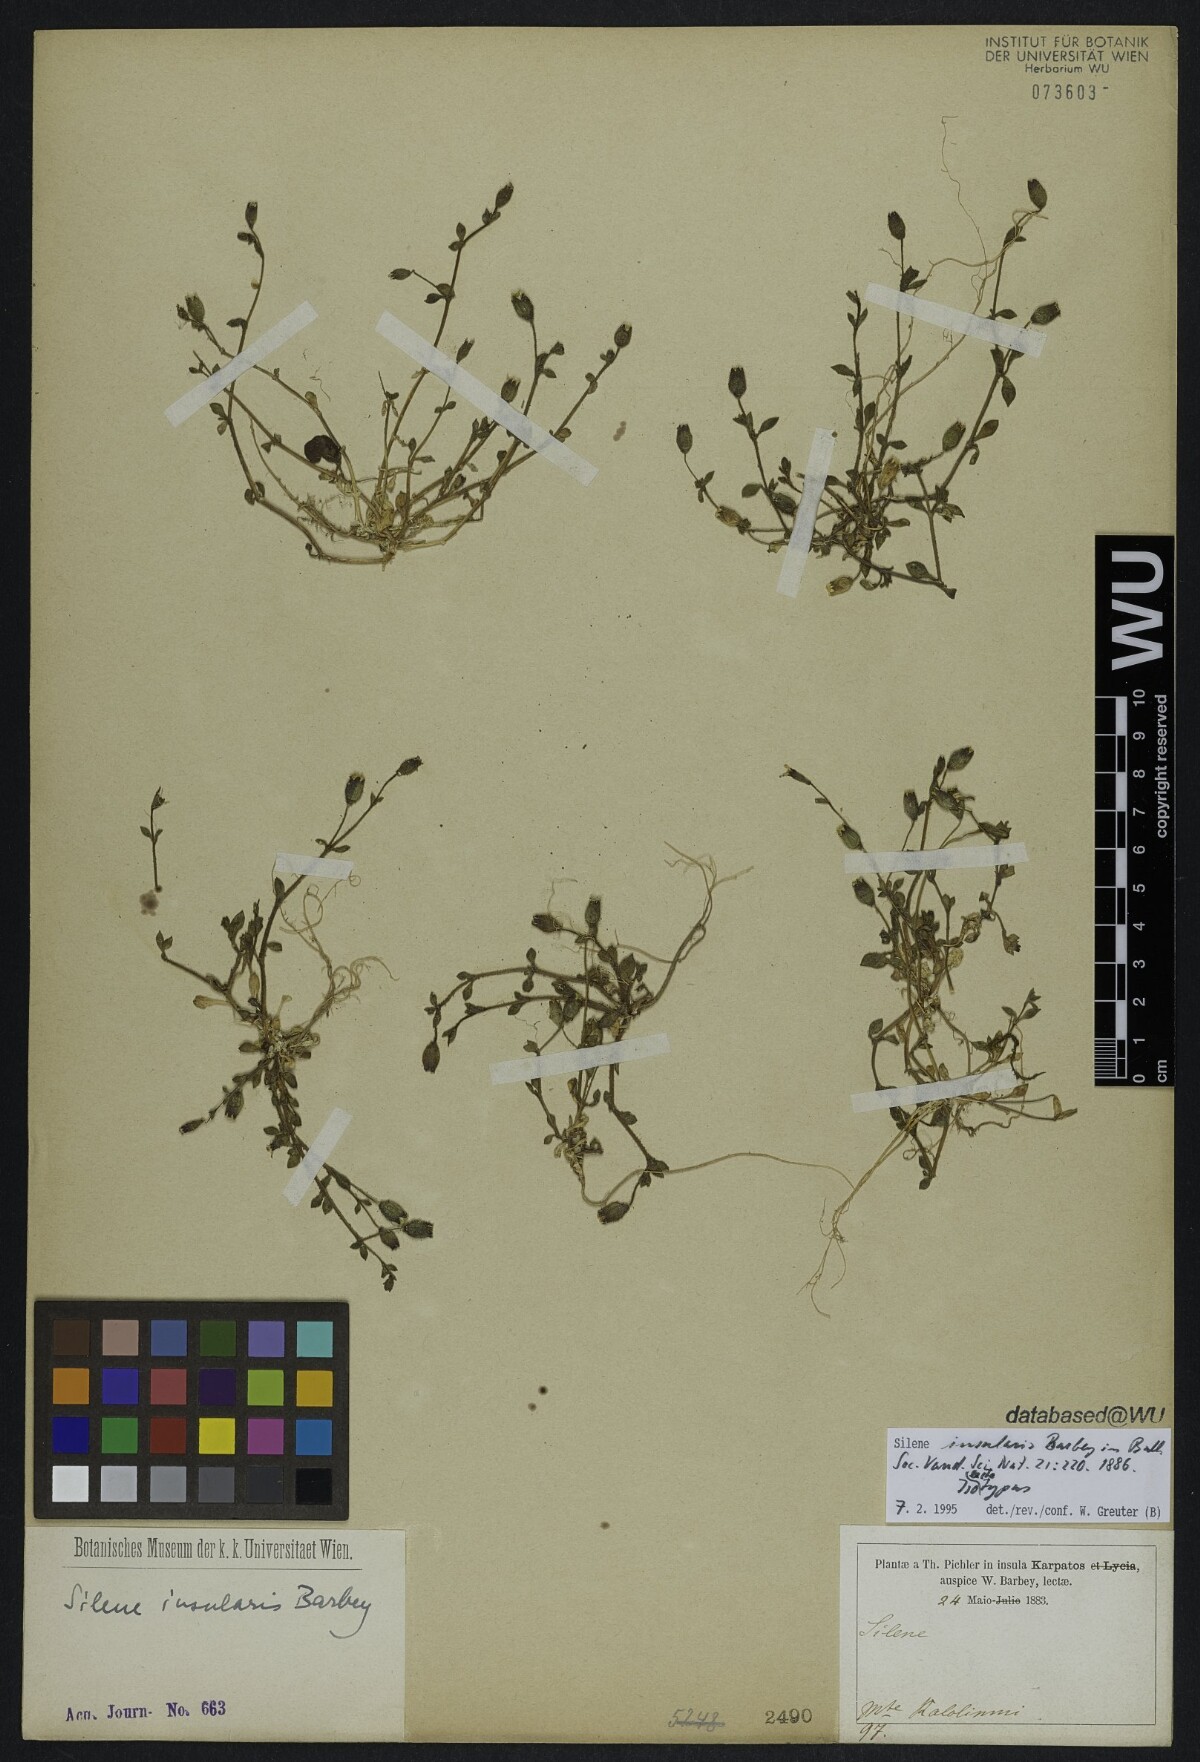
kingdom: Plantae
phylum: Tracheophyta
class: Magnoliopsida
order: Caryophyllales
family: Caryophyllaceae
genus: Silene
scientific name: Silene insularis
